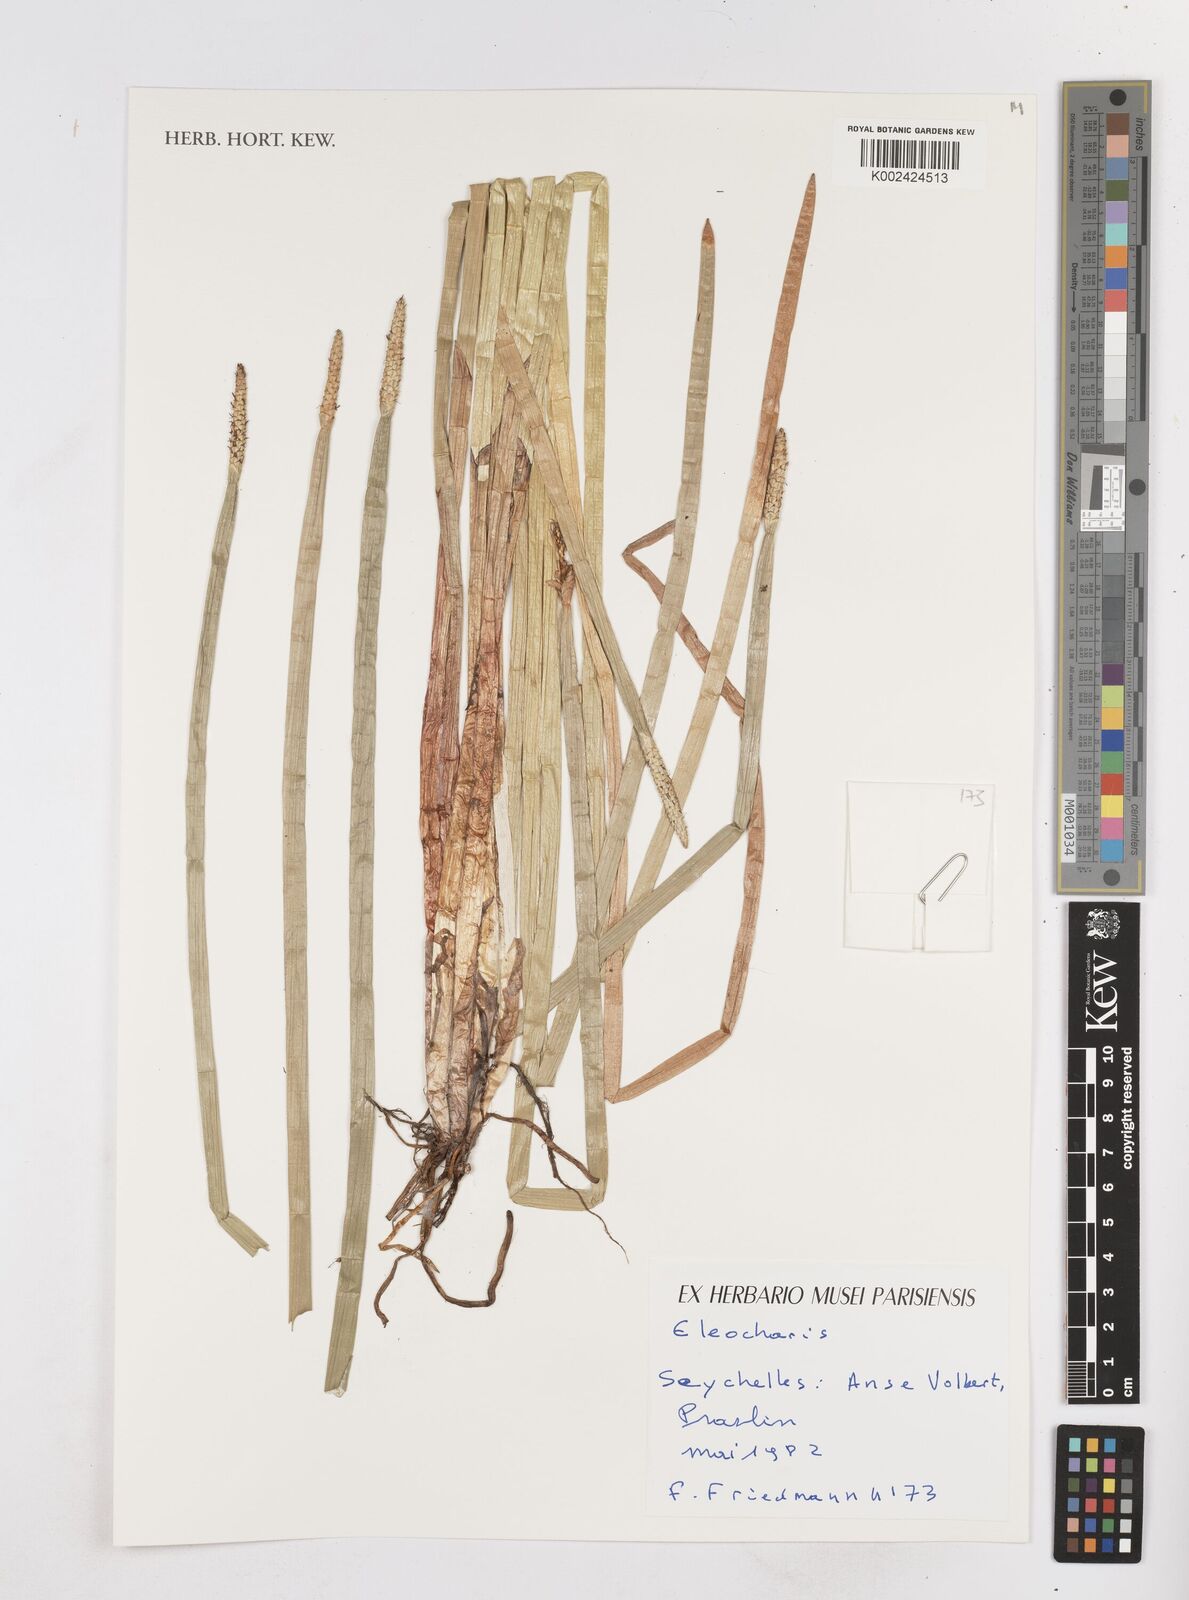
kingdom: Plantae
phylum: Tracheophyta
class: Liliopsida
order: Poales
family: Cyperaceae
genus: Eleocharis
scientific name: Eleocharis
